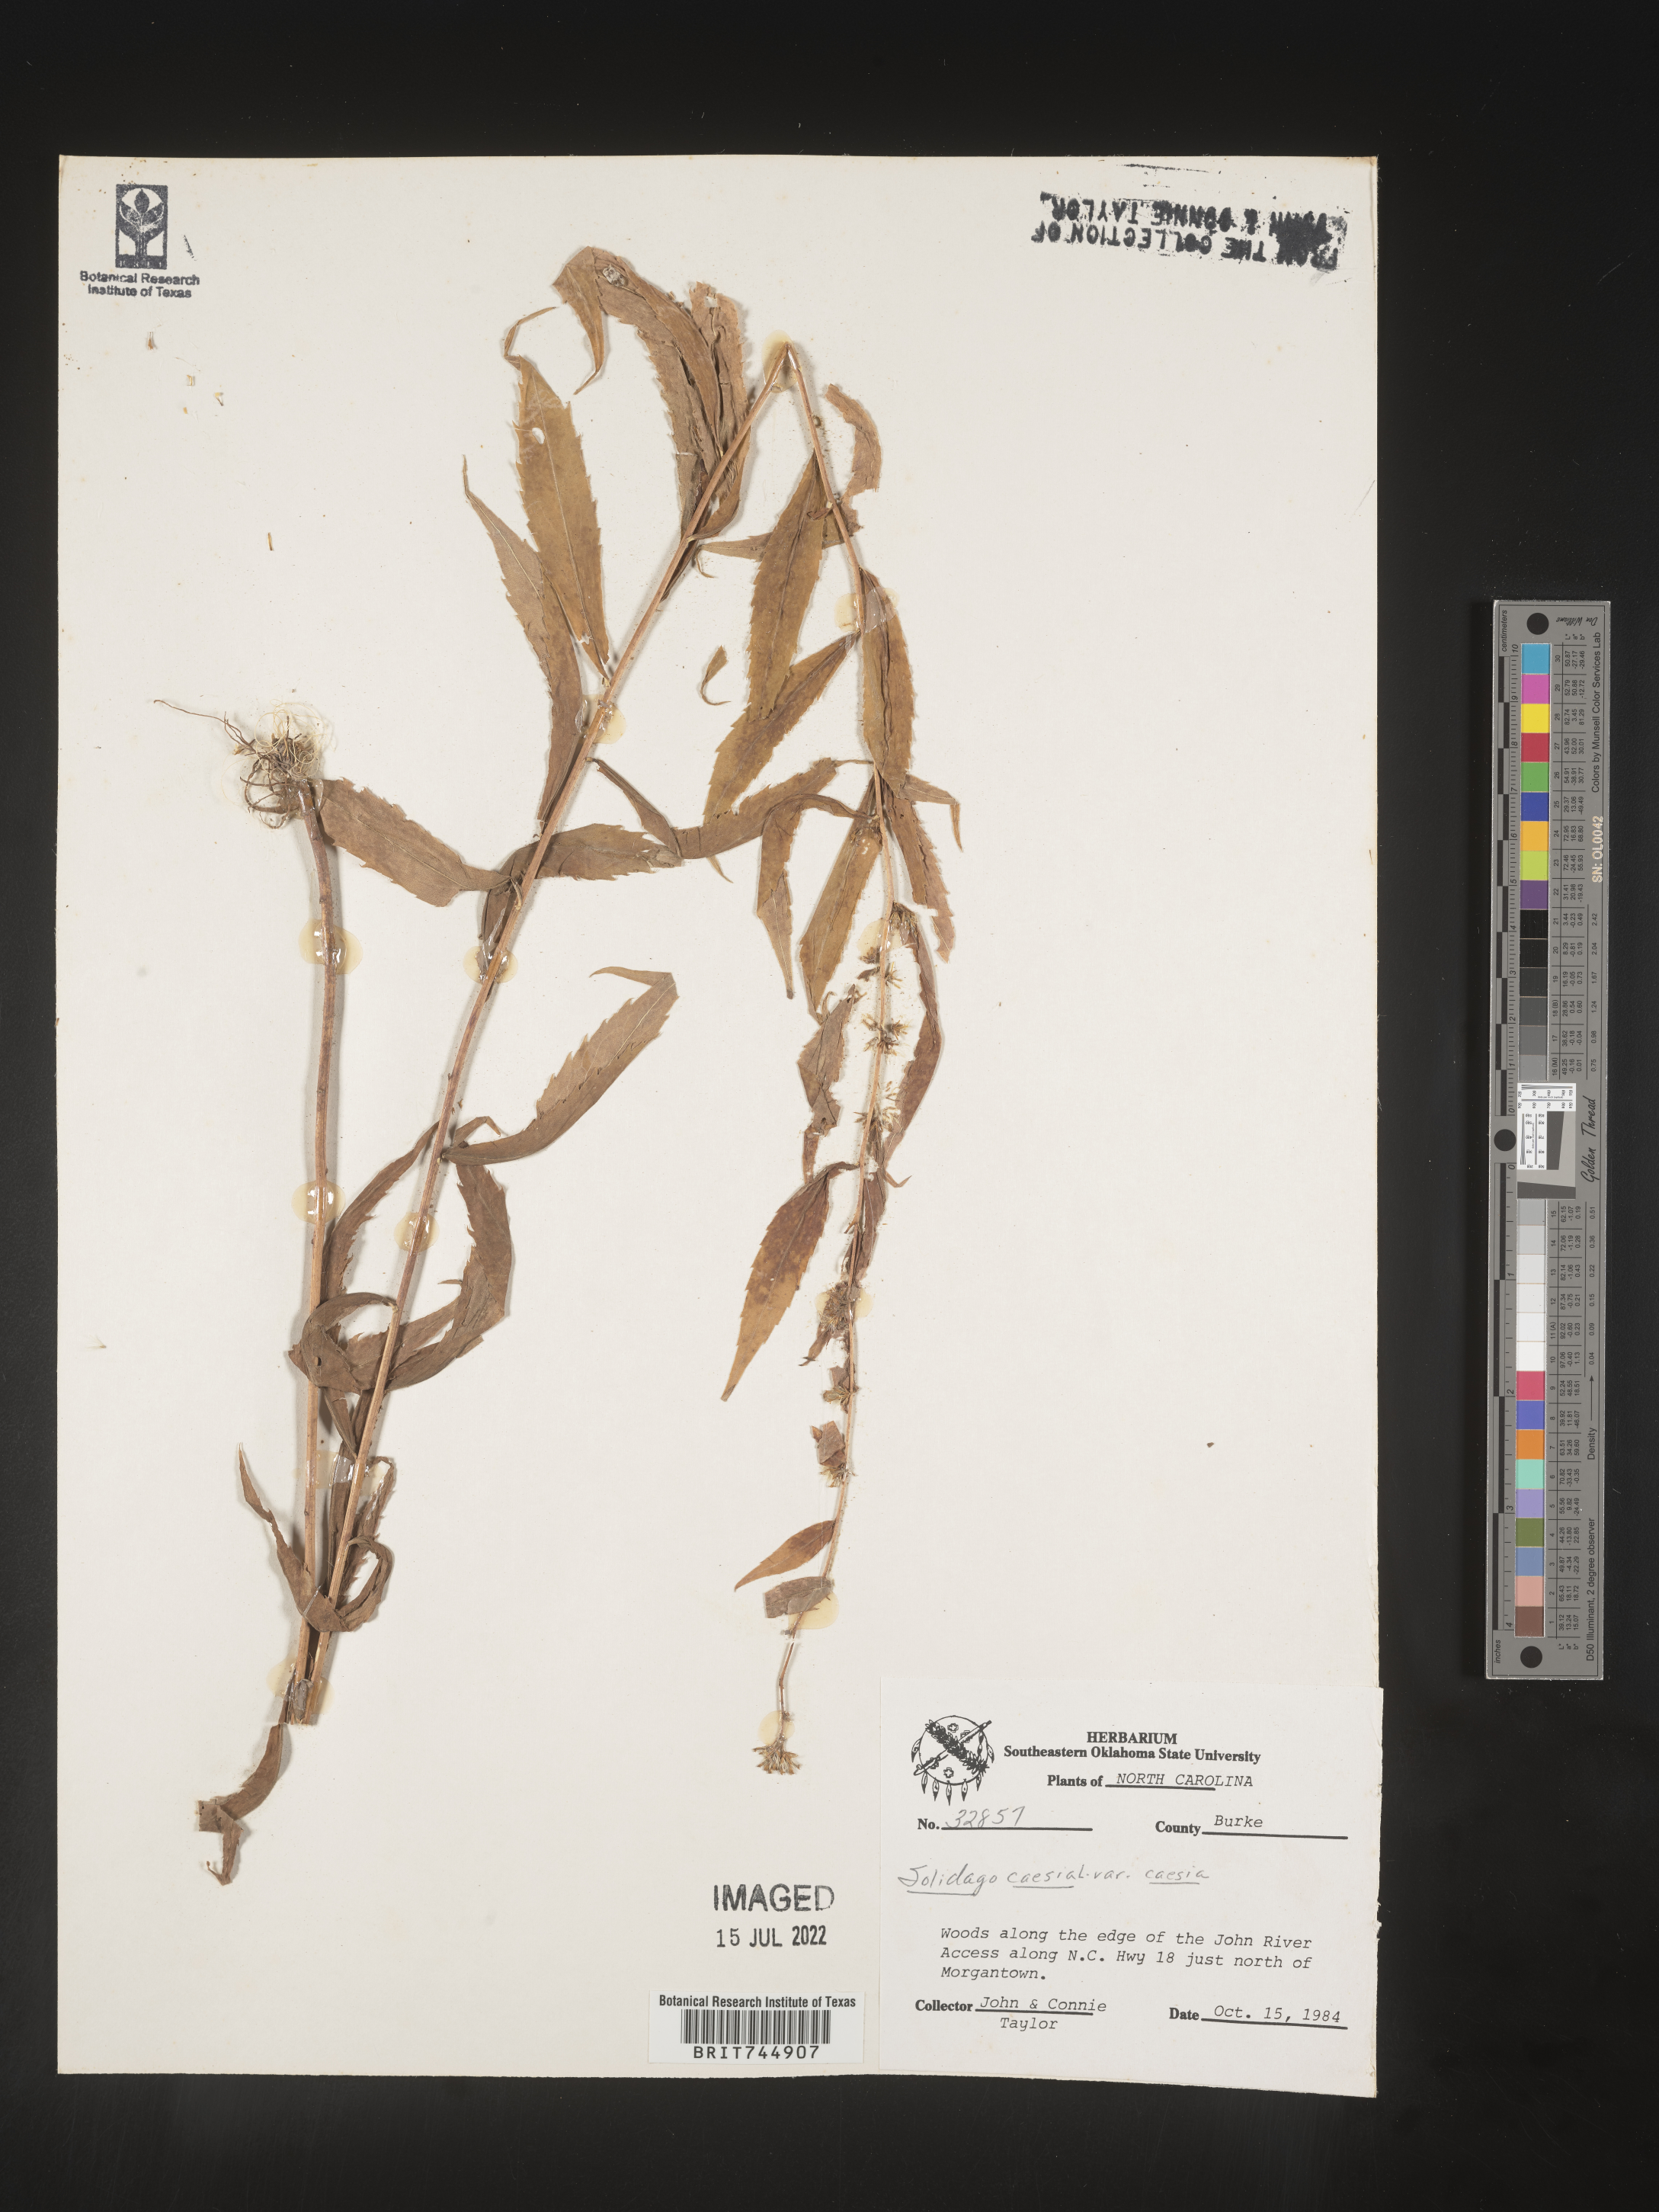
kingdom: Plantae
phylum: Tracheophyta
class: Magnoliopsida
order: Asterales
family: Asteraceae
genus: Solidago
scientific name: Solidago curtisii
